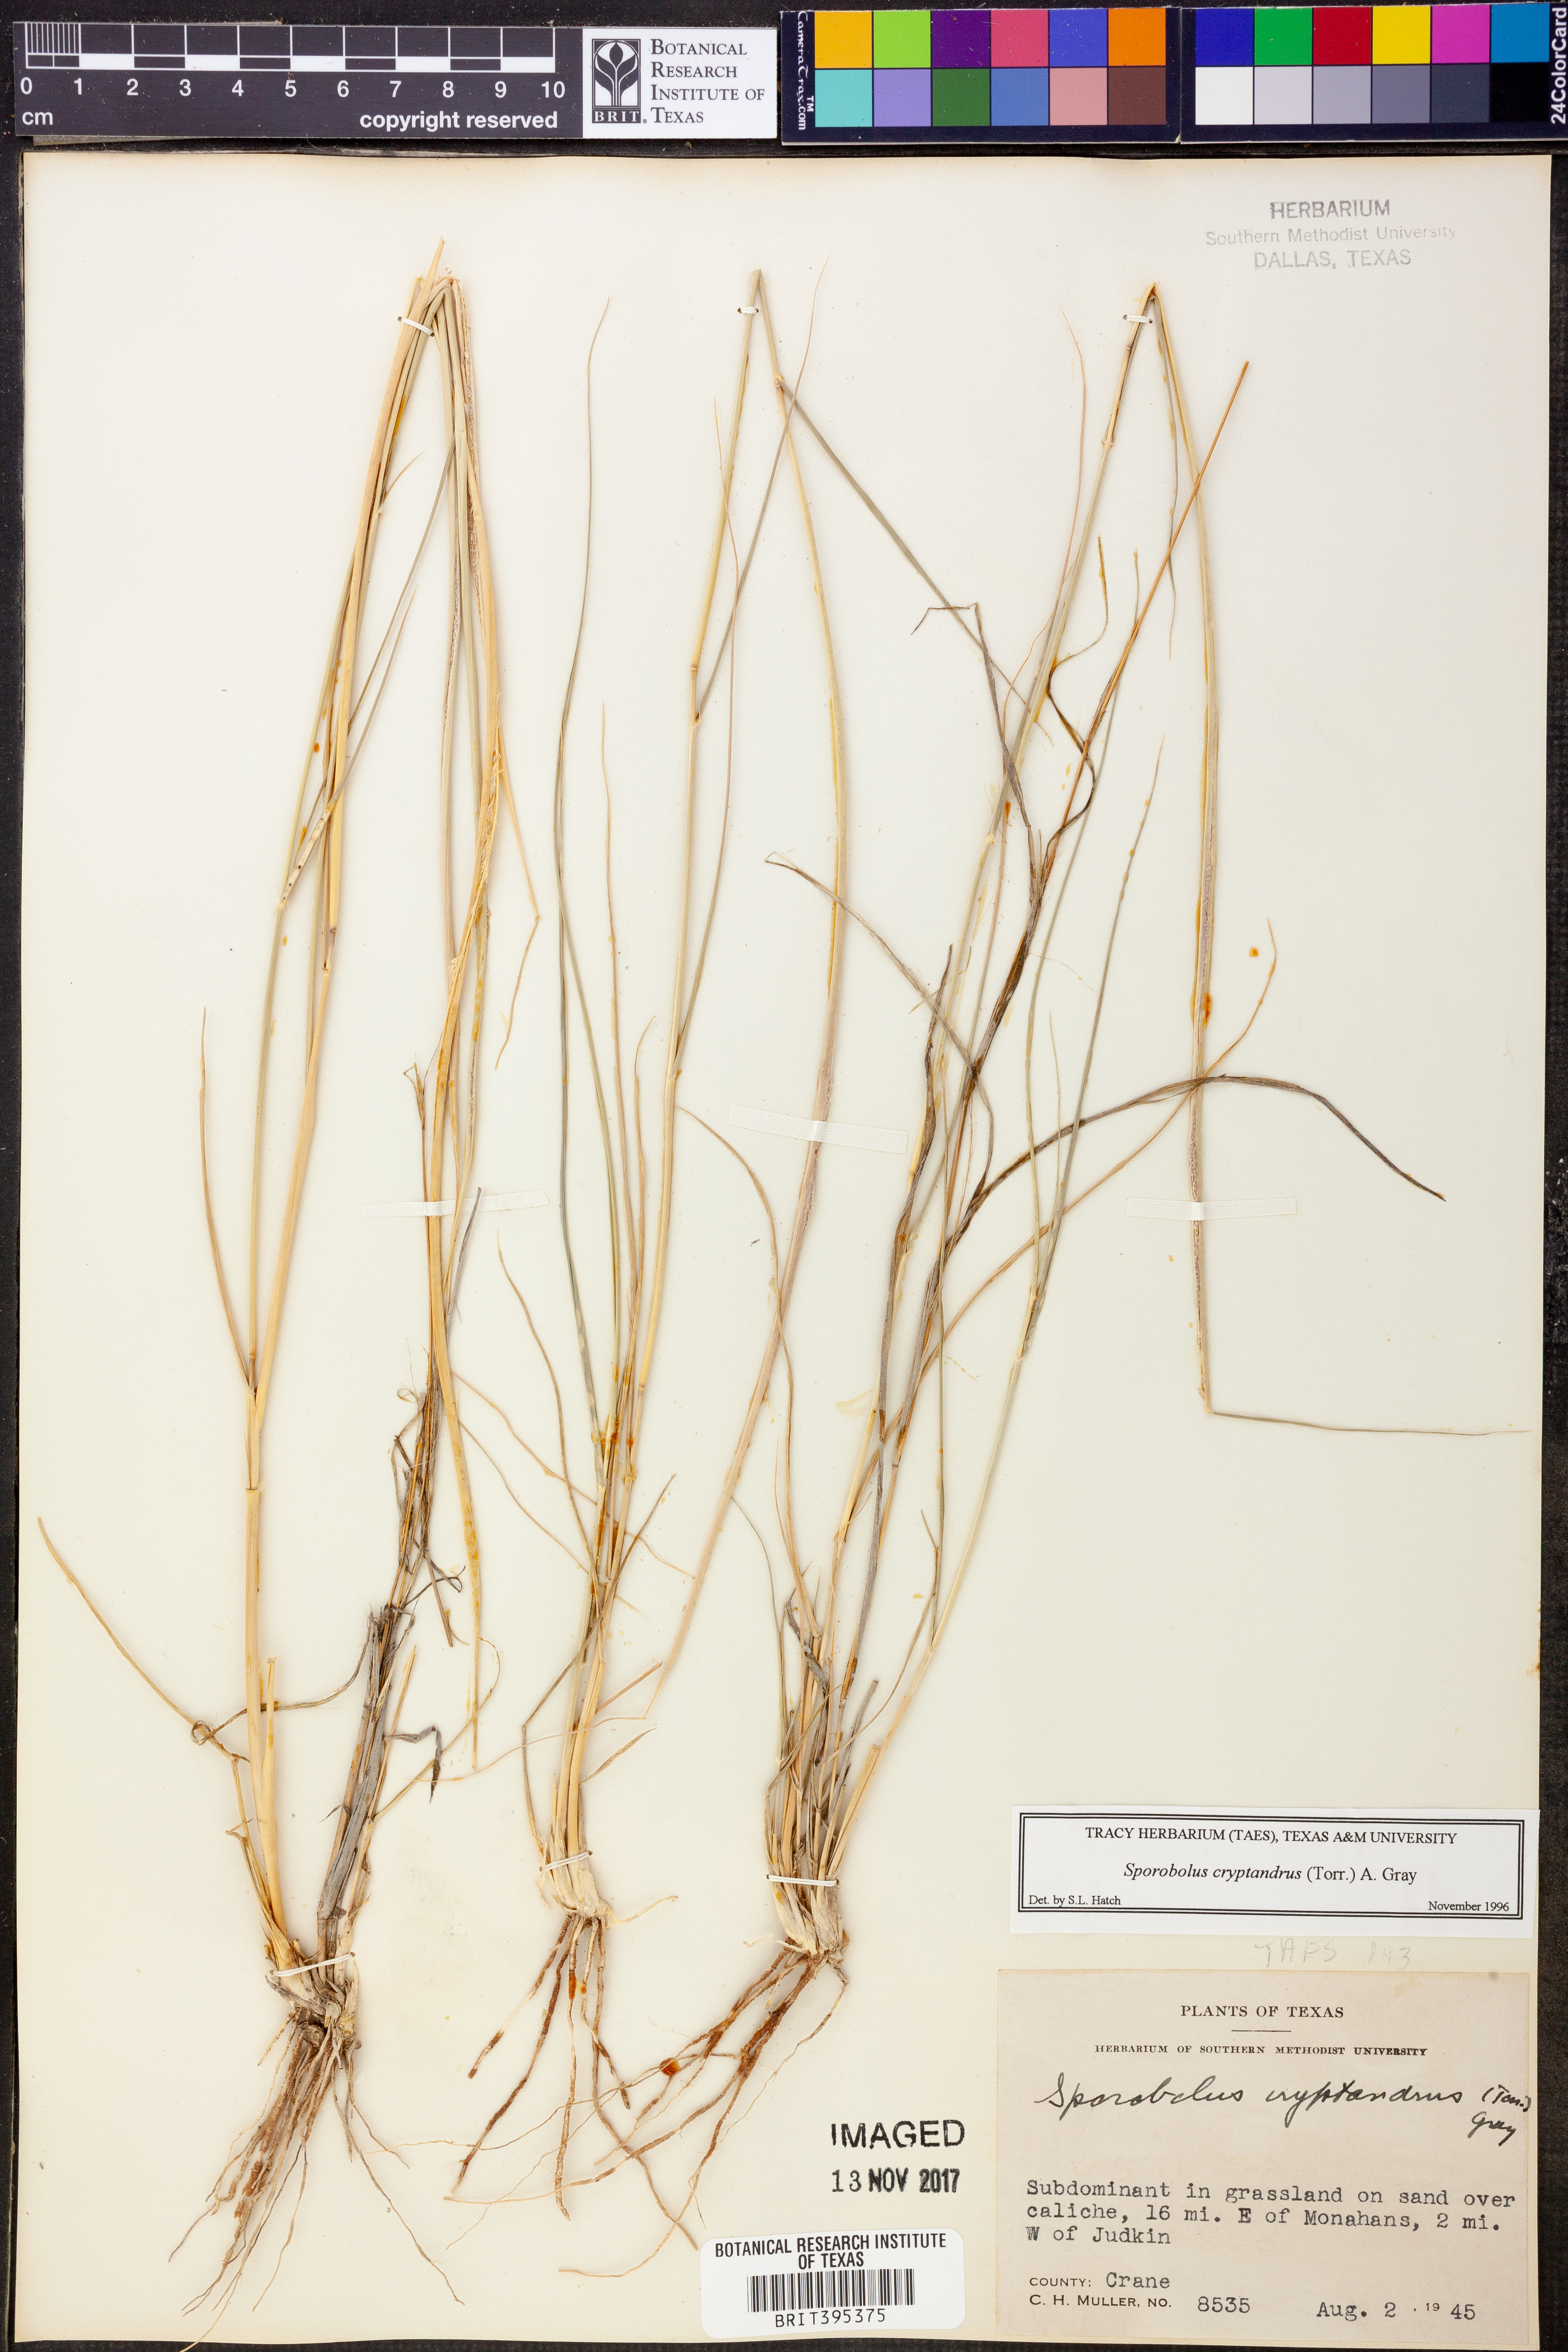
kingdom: Plantae
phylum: Tracheophyta
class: Liliopsida
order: Poales
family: Poaceae
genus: Sporobolus
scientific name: Sporobolus cryptandrus
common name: Sand dropseed
